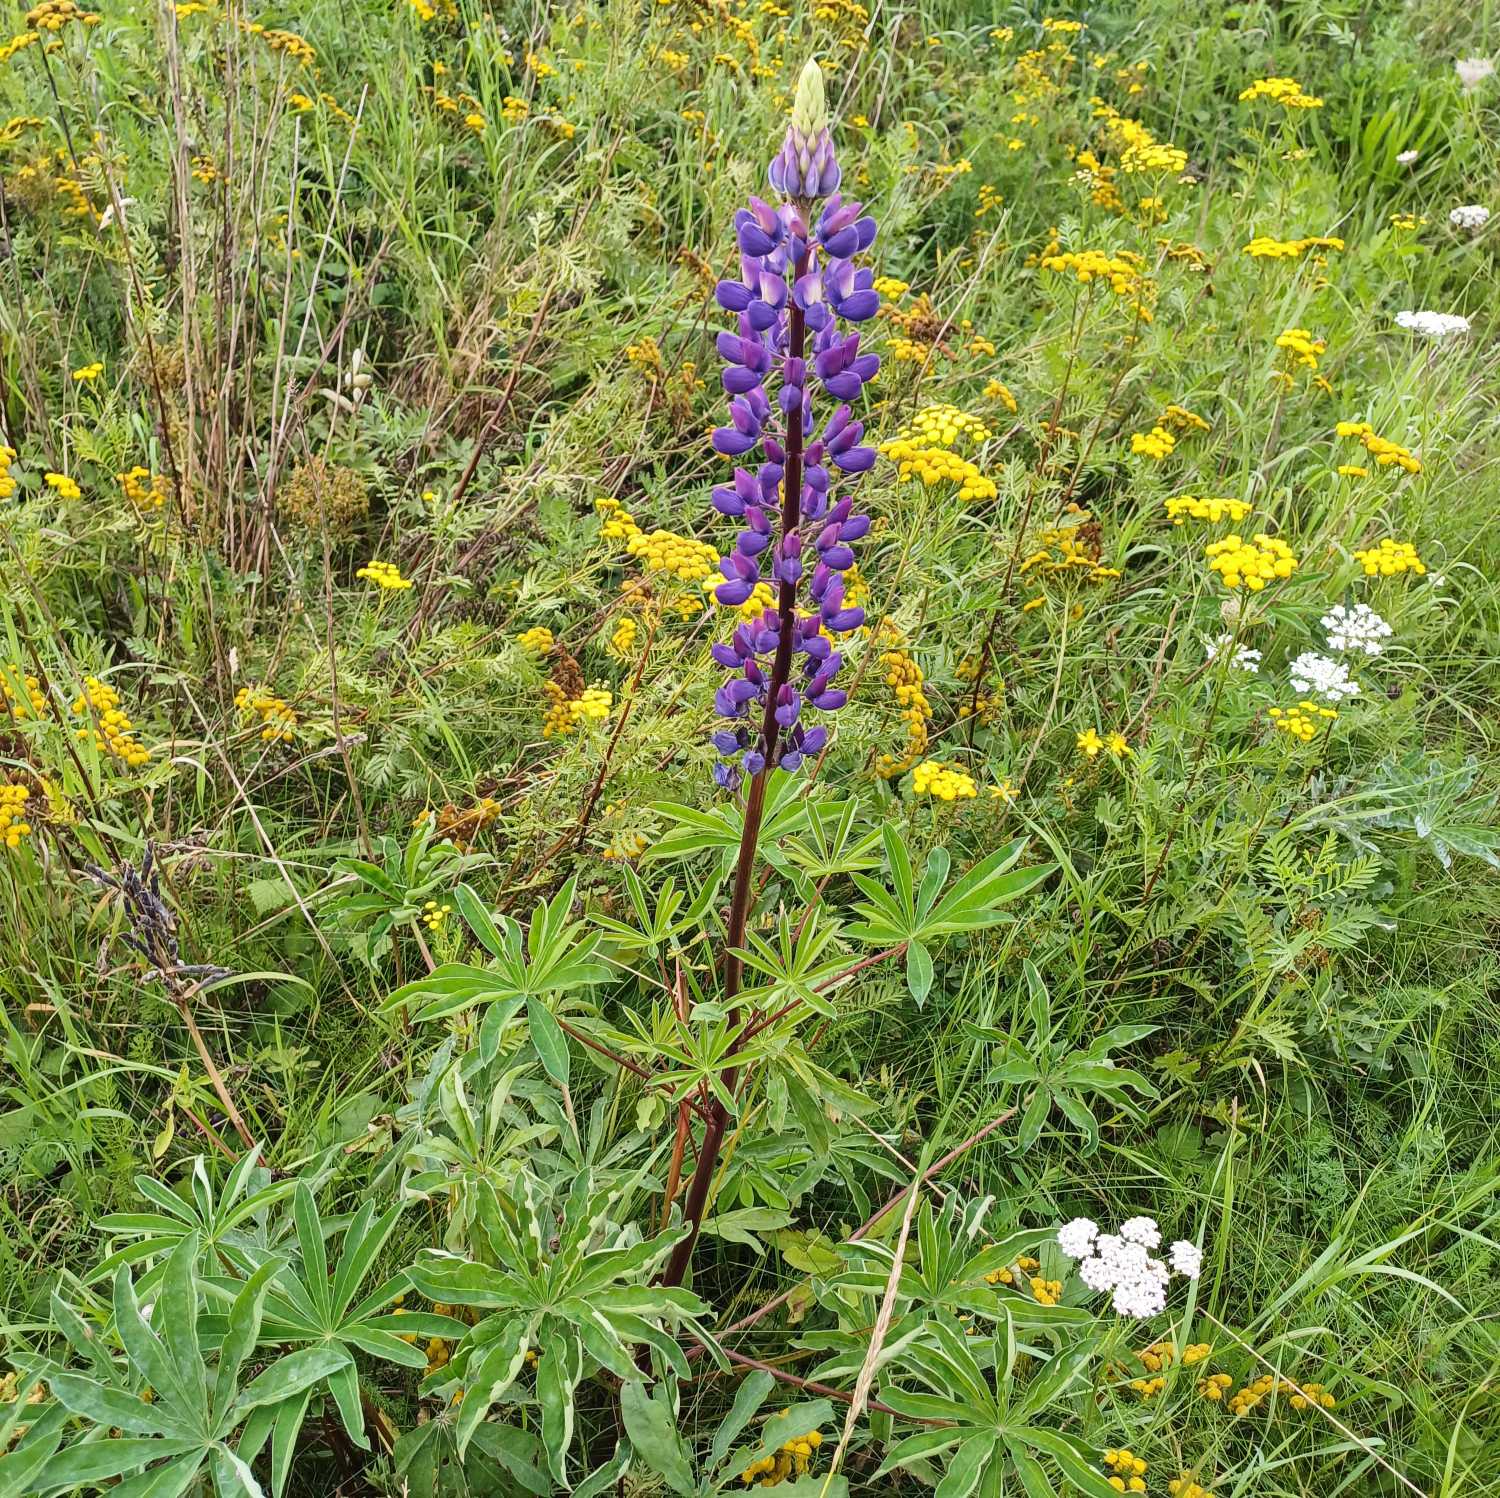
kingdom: Plantae
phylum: Tracheophyta
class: Magnoliopsida
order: Fabales
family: Fabaceae
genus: Lupinus
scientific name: Lupinus polyphyllus
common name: Mangebladet lupin
